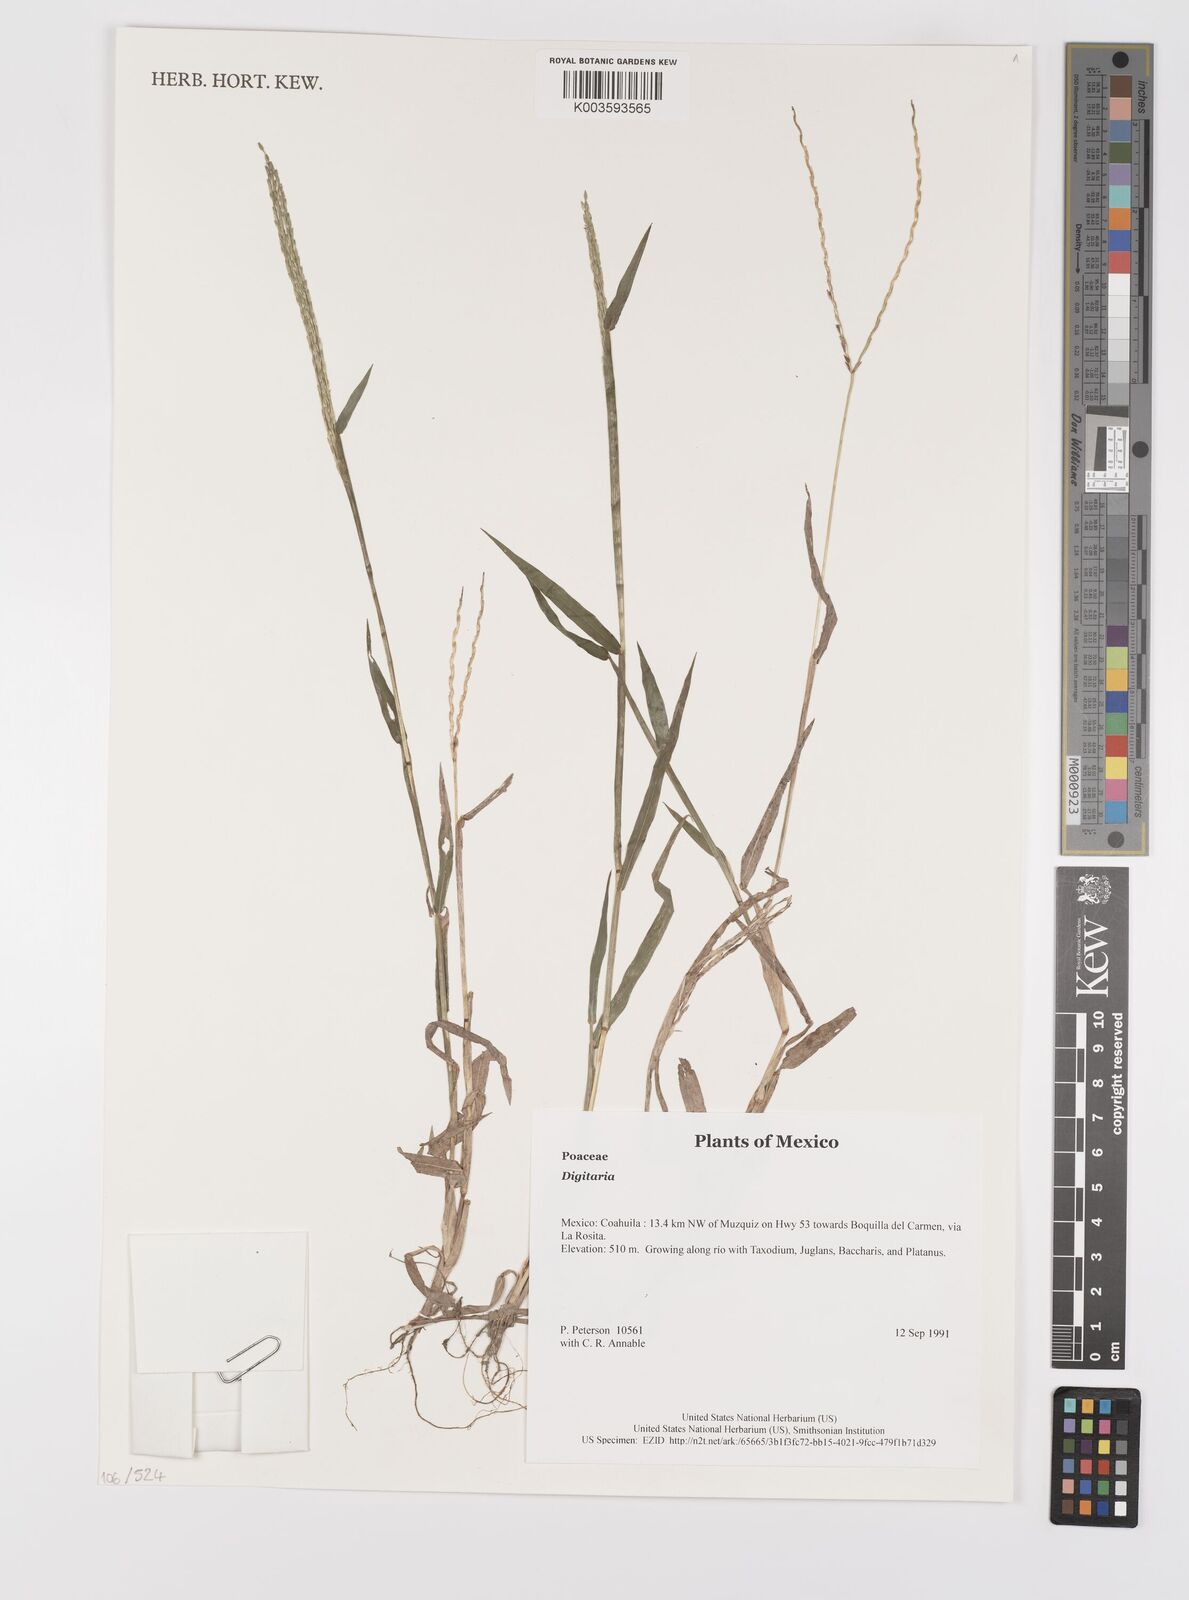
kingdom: Plantae
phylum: Tracheophyta
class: Liliopsida
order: Poales
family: Poaceae
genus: Digitaria
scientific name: Digitaria spec
